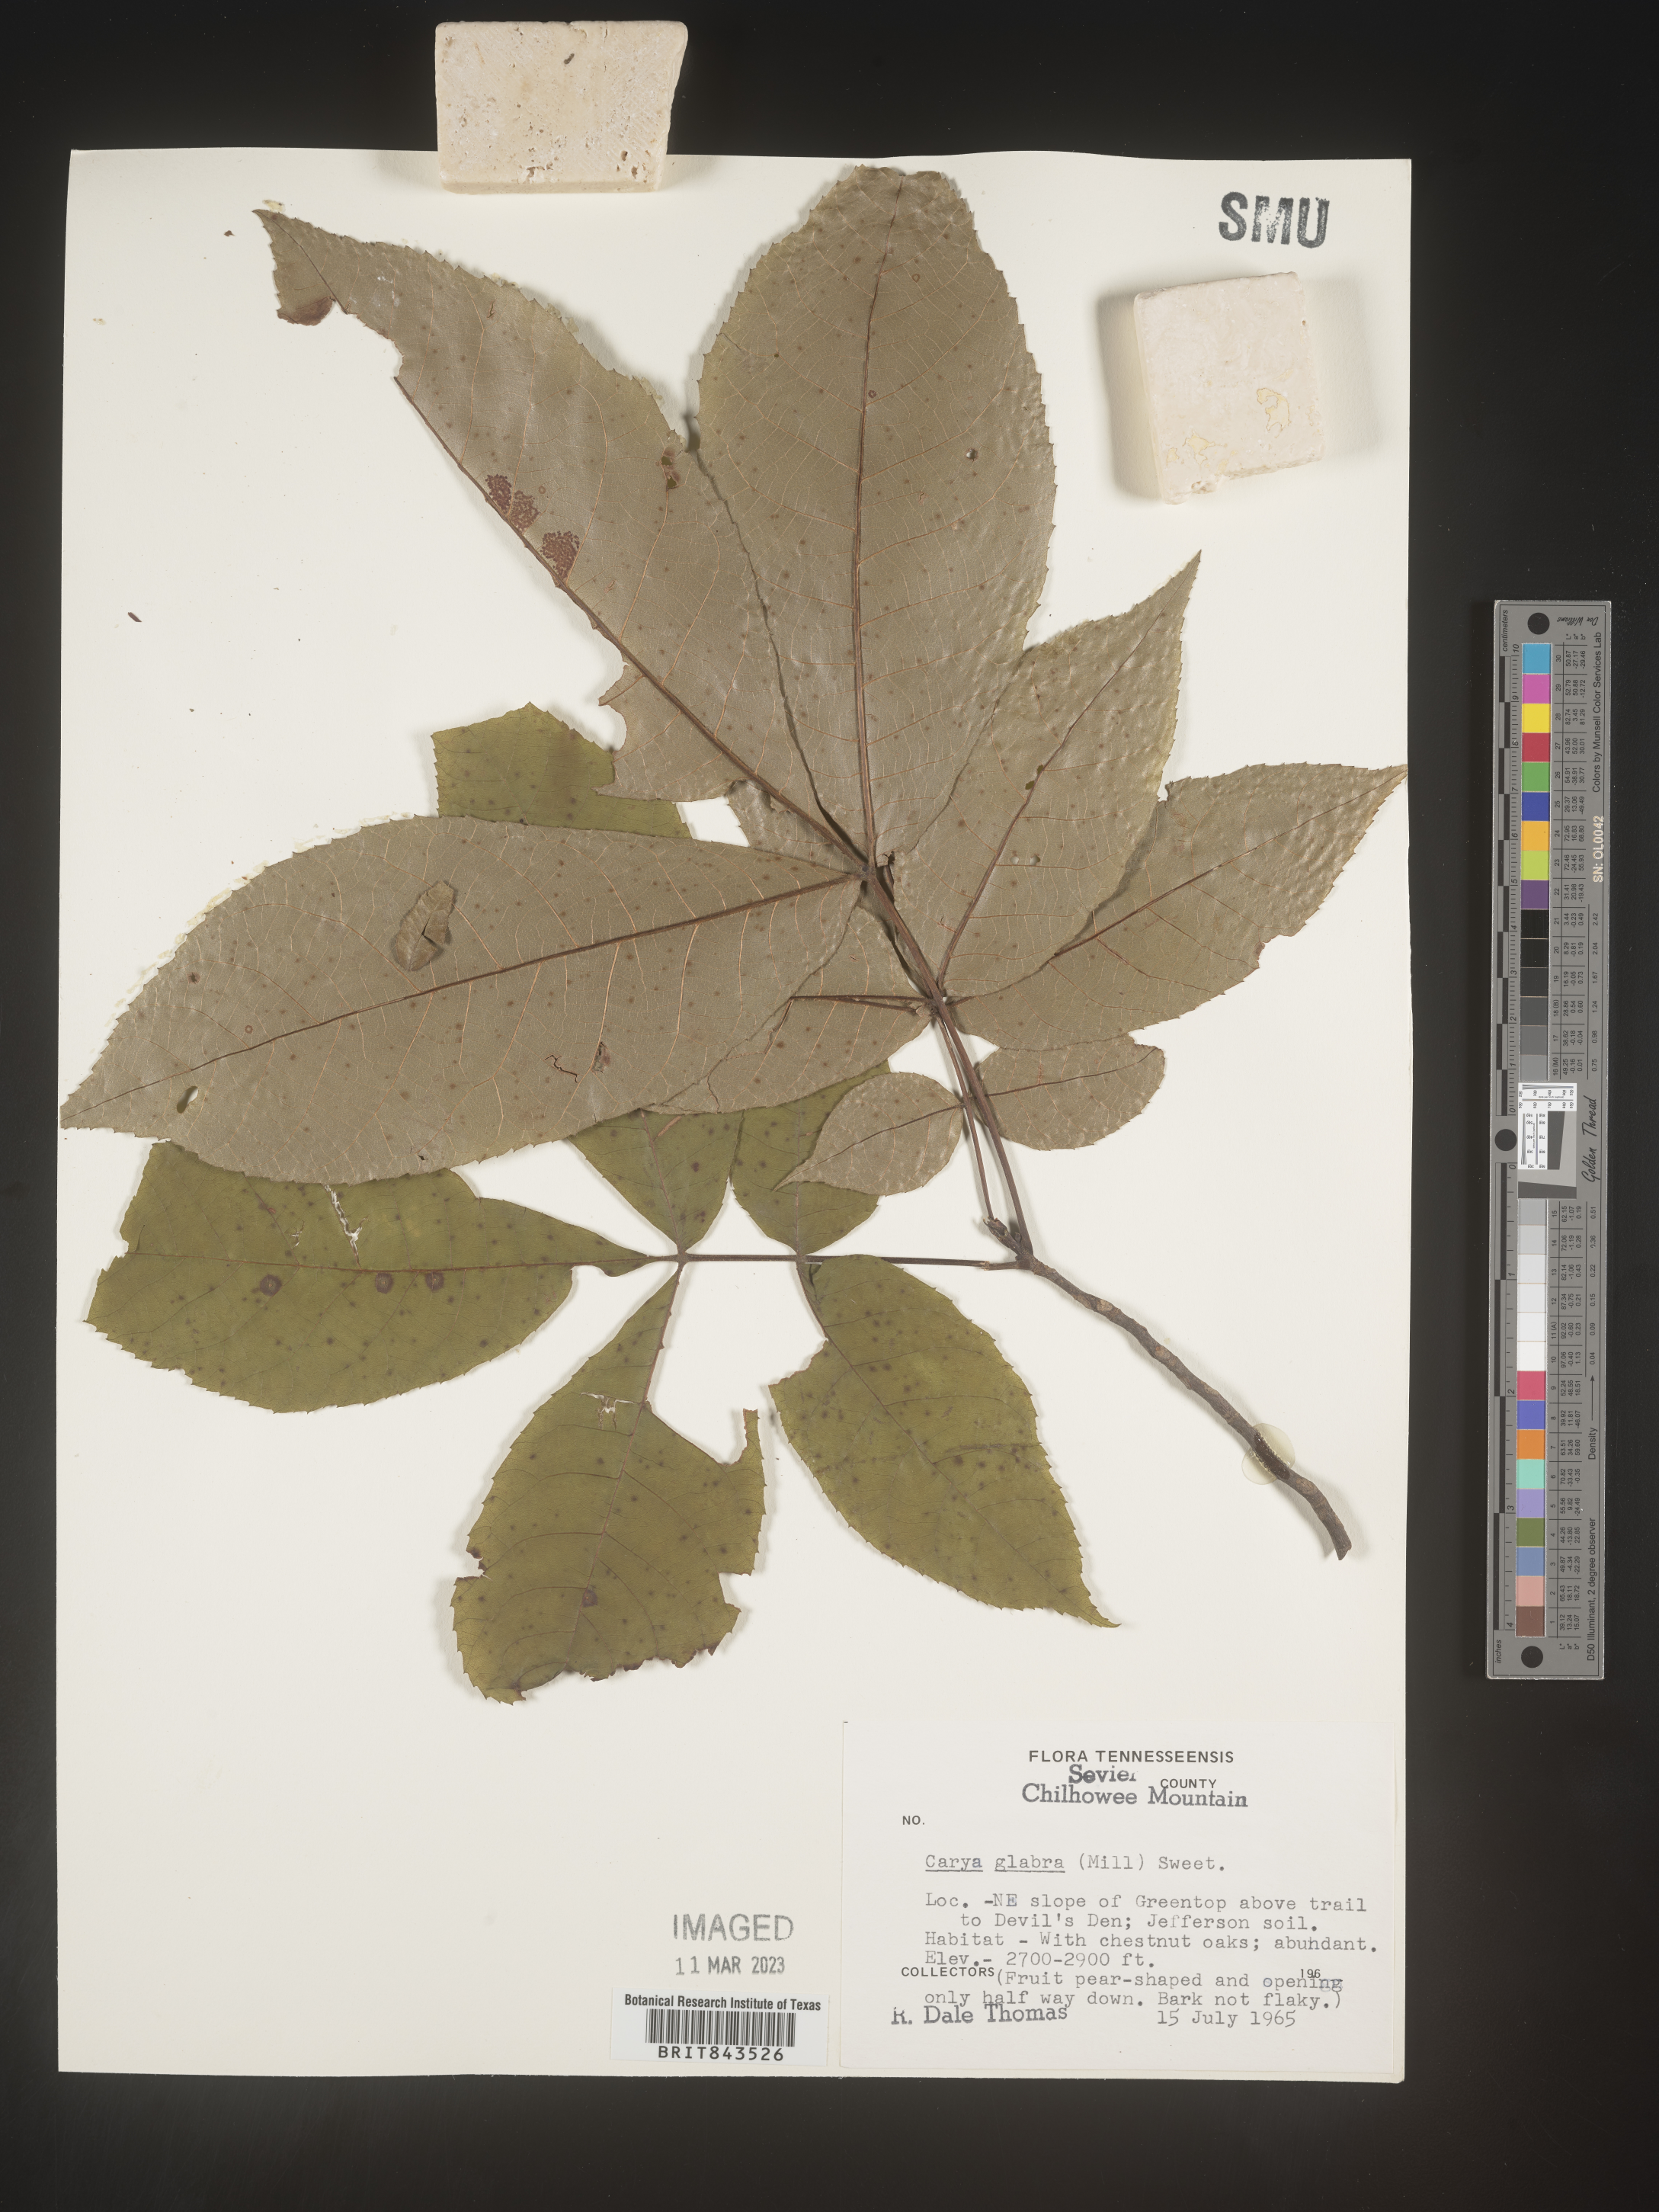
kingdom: Plantae
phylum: Tracheophyta
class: Magnoliopsida
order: Fagales
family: Juglandaceae
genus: Carya
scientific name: Carya glabra
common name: Pignut hickory
